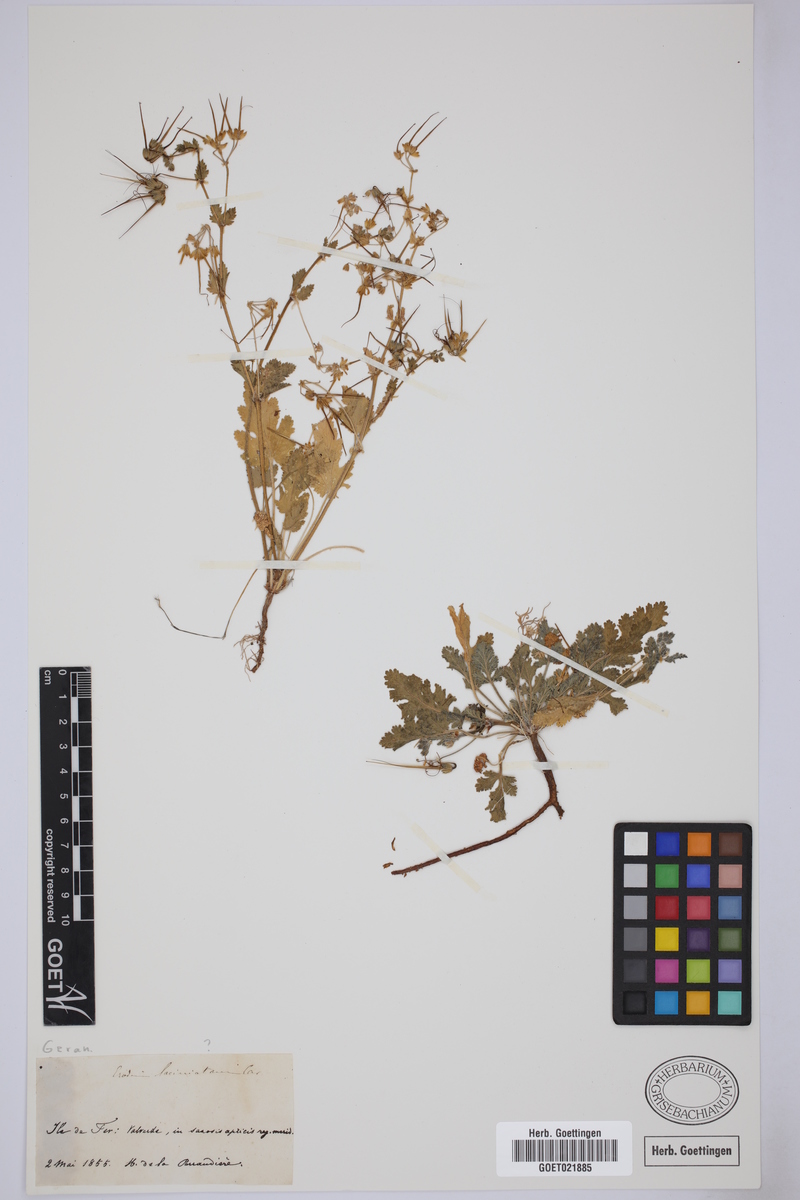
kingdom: Plantae
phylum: Tracheophyta
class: Magnoliopsida
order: Geraniales
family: Geraniaceae
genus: Erodium
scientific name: Erodium laciniatum
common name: Cutleaf stork's bill
